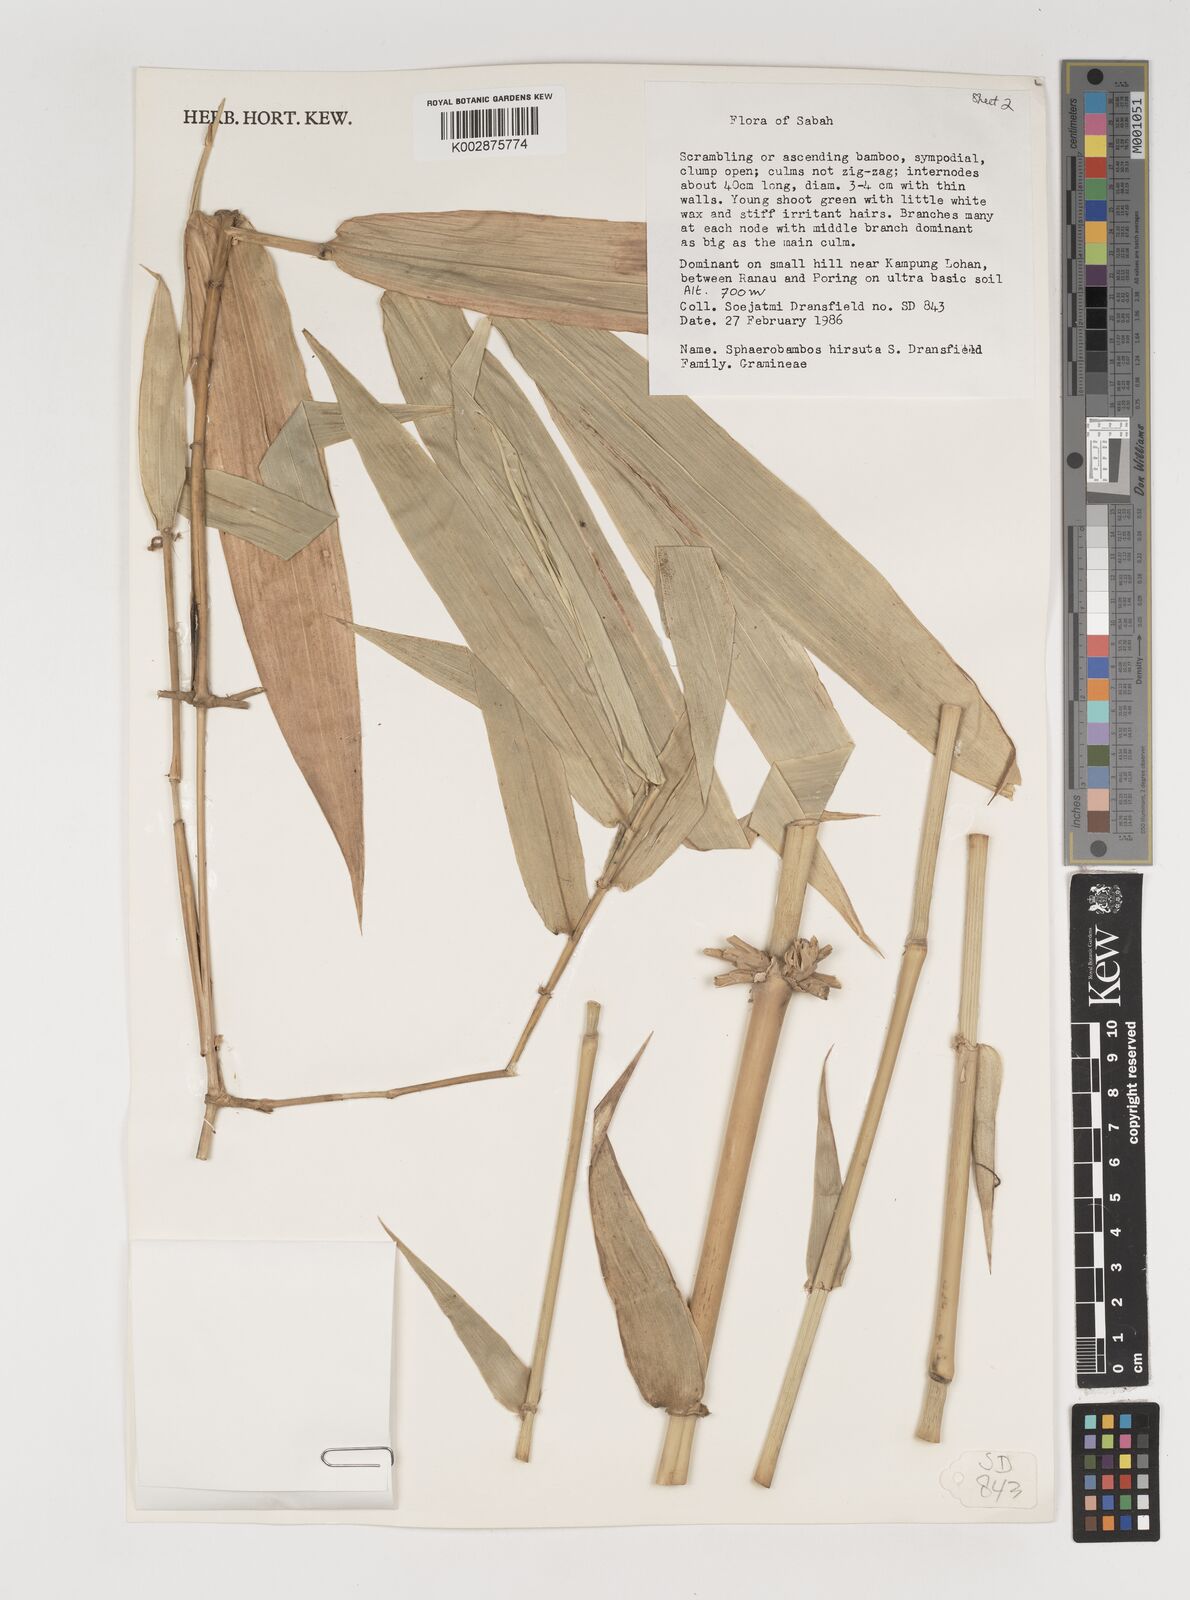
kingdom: Plantae
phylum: Tracheophyta
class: Liliopsida
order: Poales
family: Poaceae
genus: Sphaerobambos
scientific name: Sphaerobambos hirsuta
